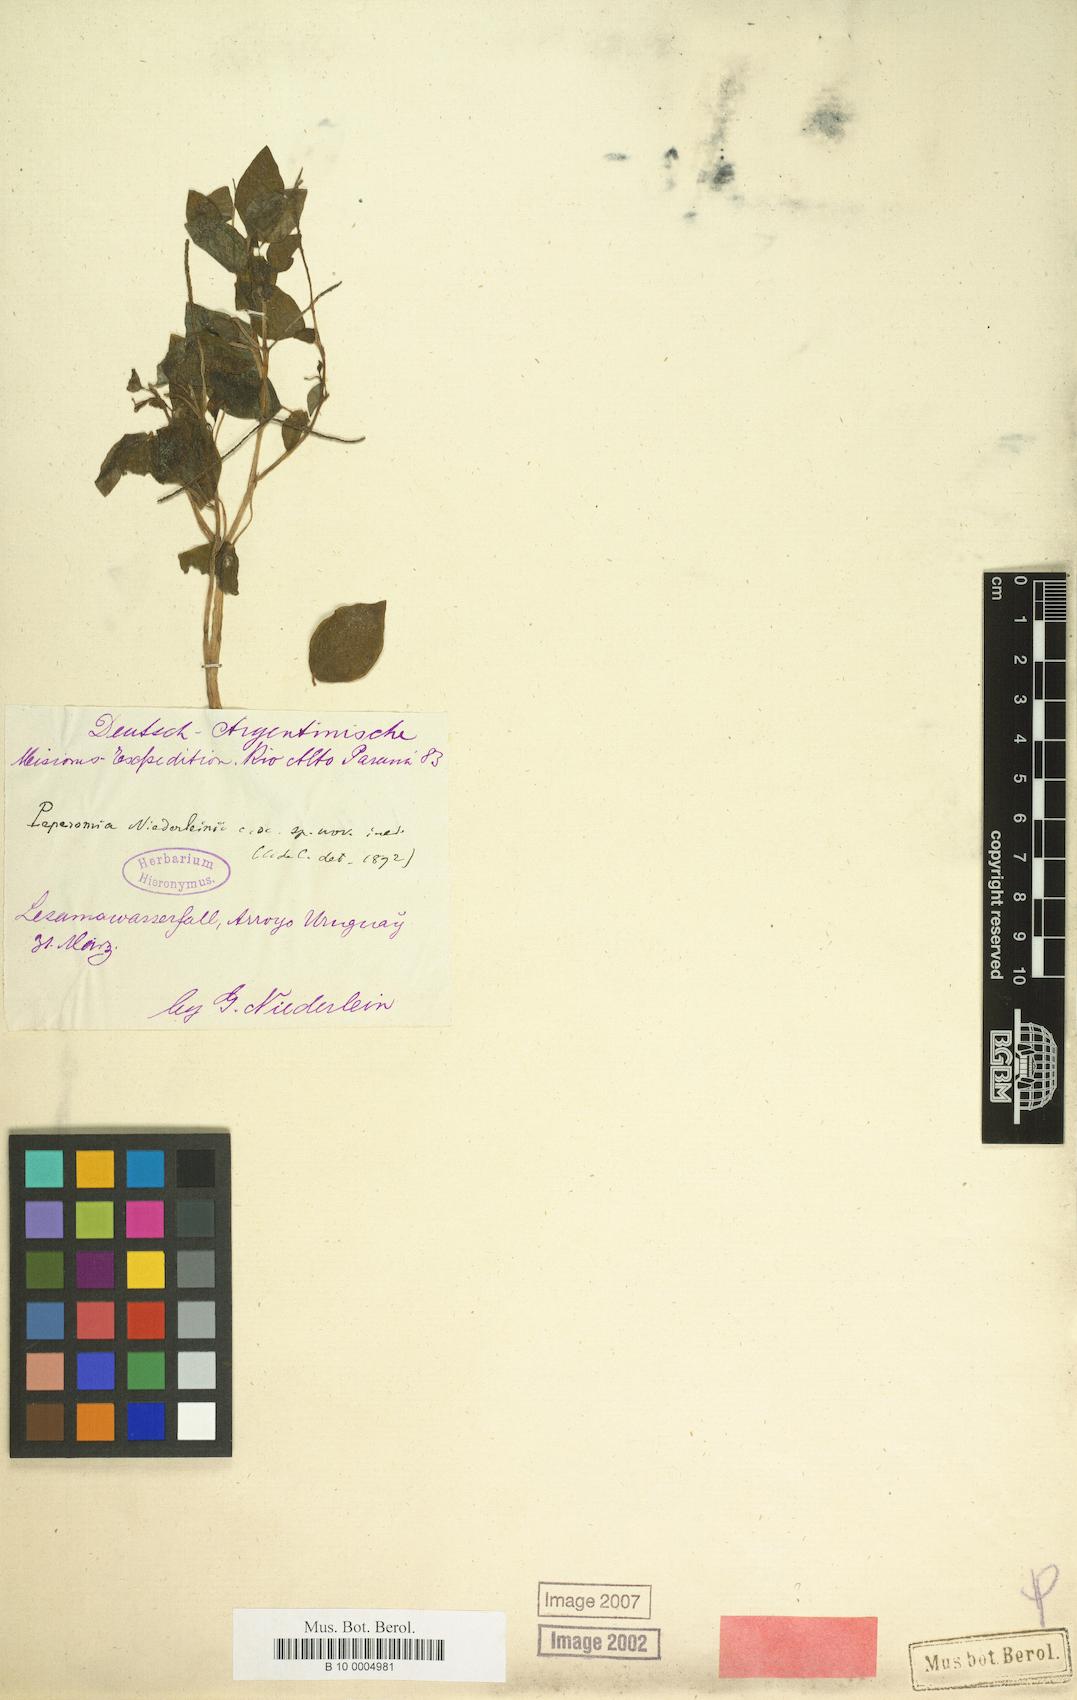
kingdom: Plantae
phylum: Tracheophyta
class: Magnoliopsida
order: Piperales
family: Piperaceae
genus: Peperomia
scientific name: Peperomia niederleinii
